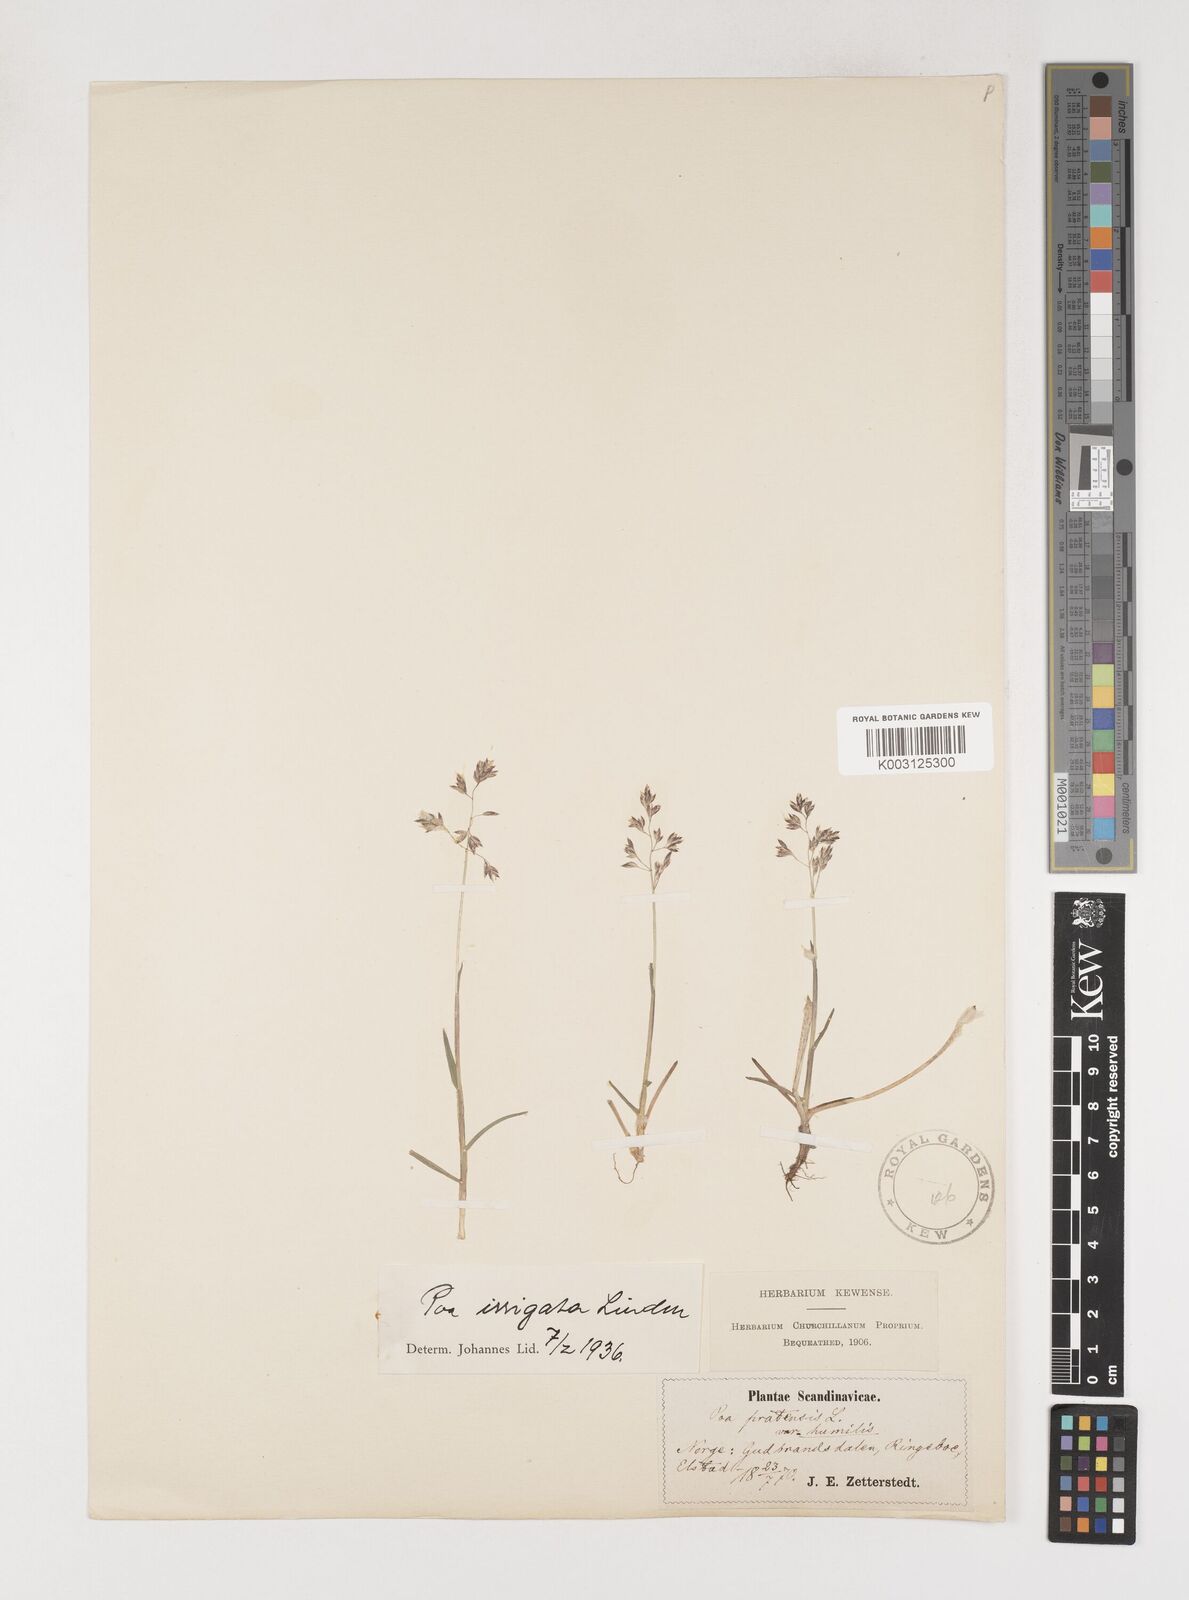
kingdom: Plantae
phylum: Tracheophyta
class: Liliopsida
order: Poales
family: Poaceae
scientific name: Poaceae
